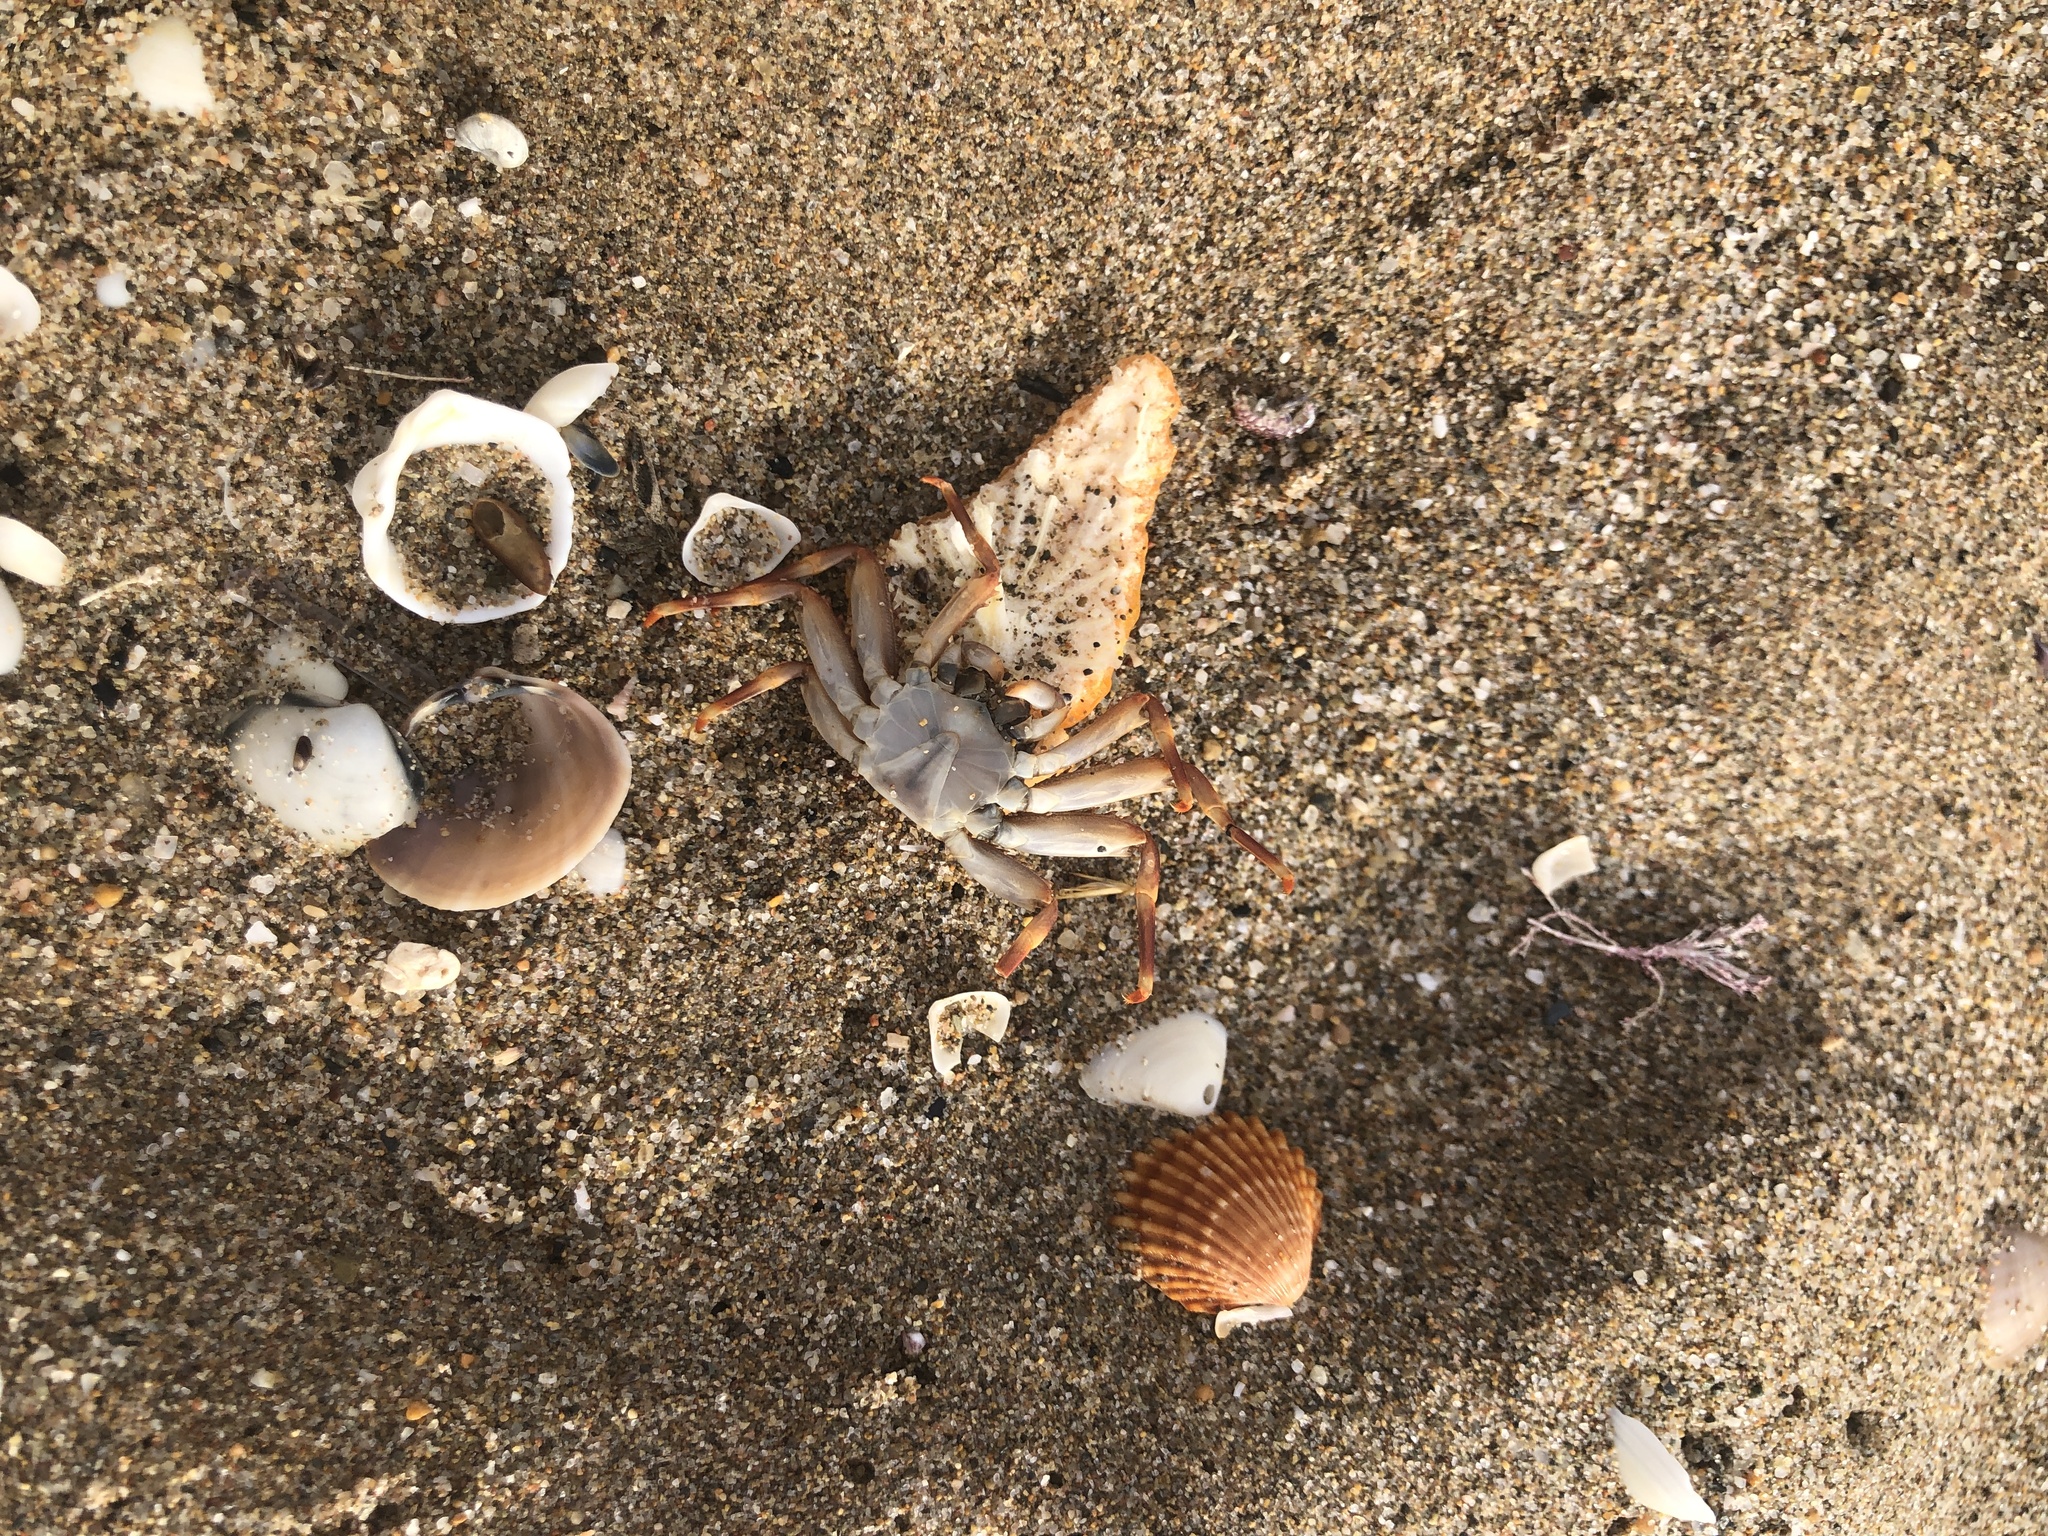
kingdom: Animalia
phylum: Arthropoda
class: Malacostraca
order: Decapoda
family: Percnidae
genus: Percnon
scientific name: Percnon gibbesi
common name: Nimble spray crab
